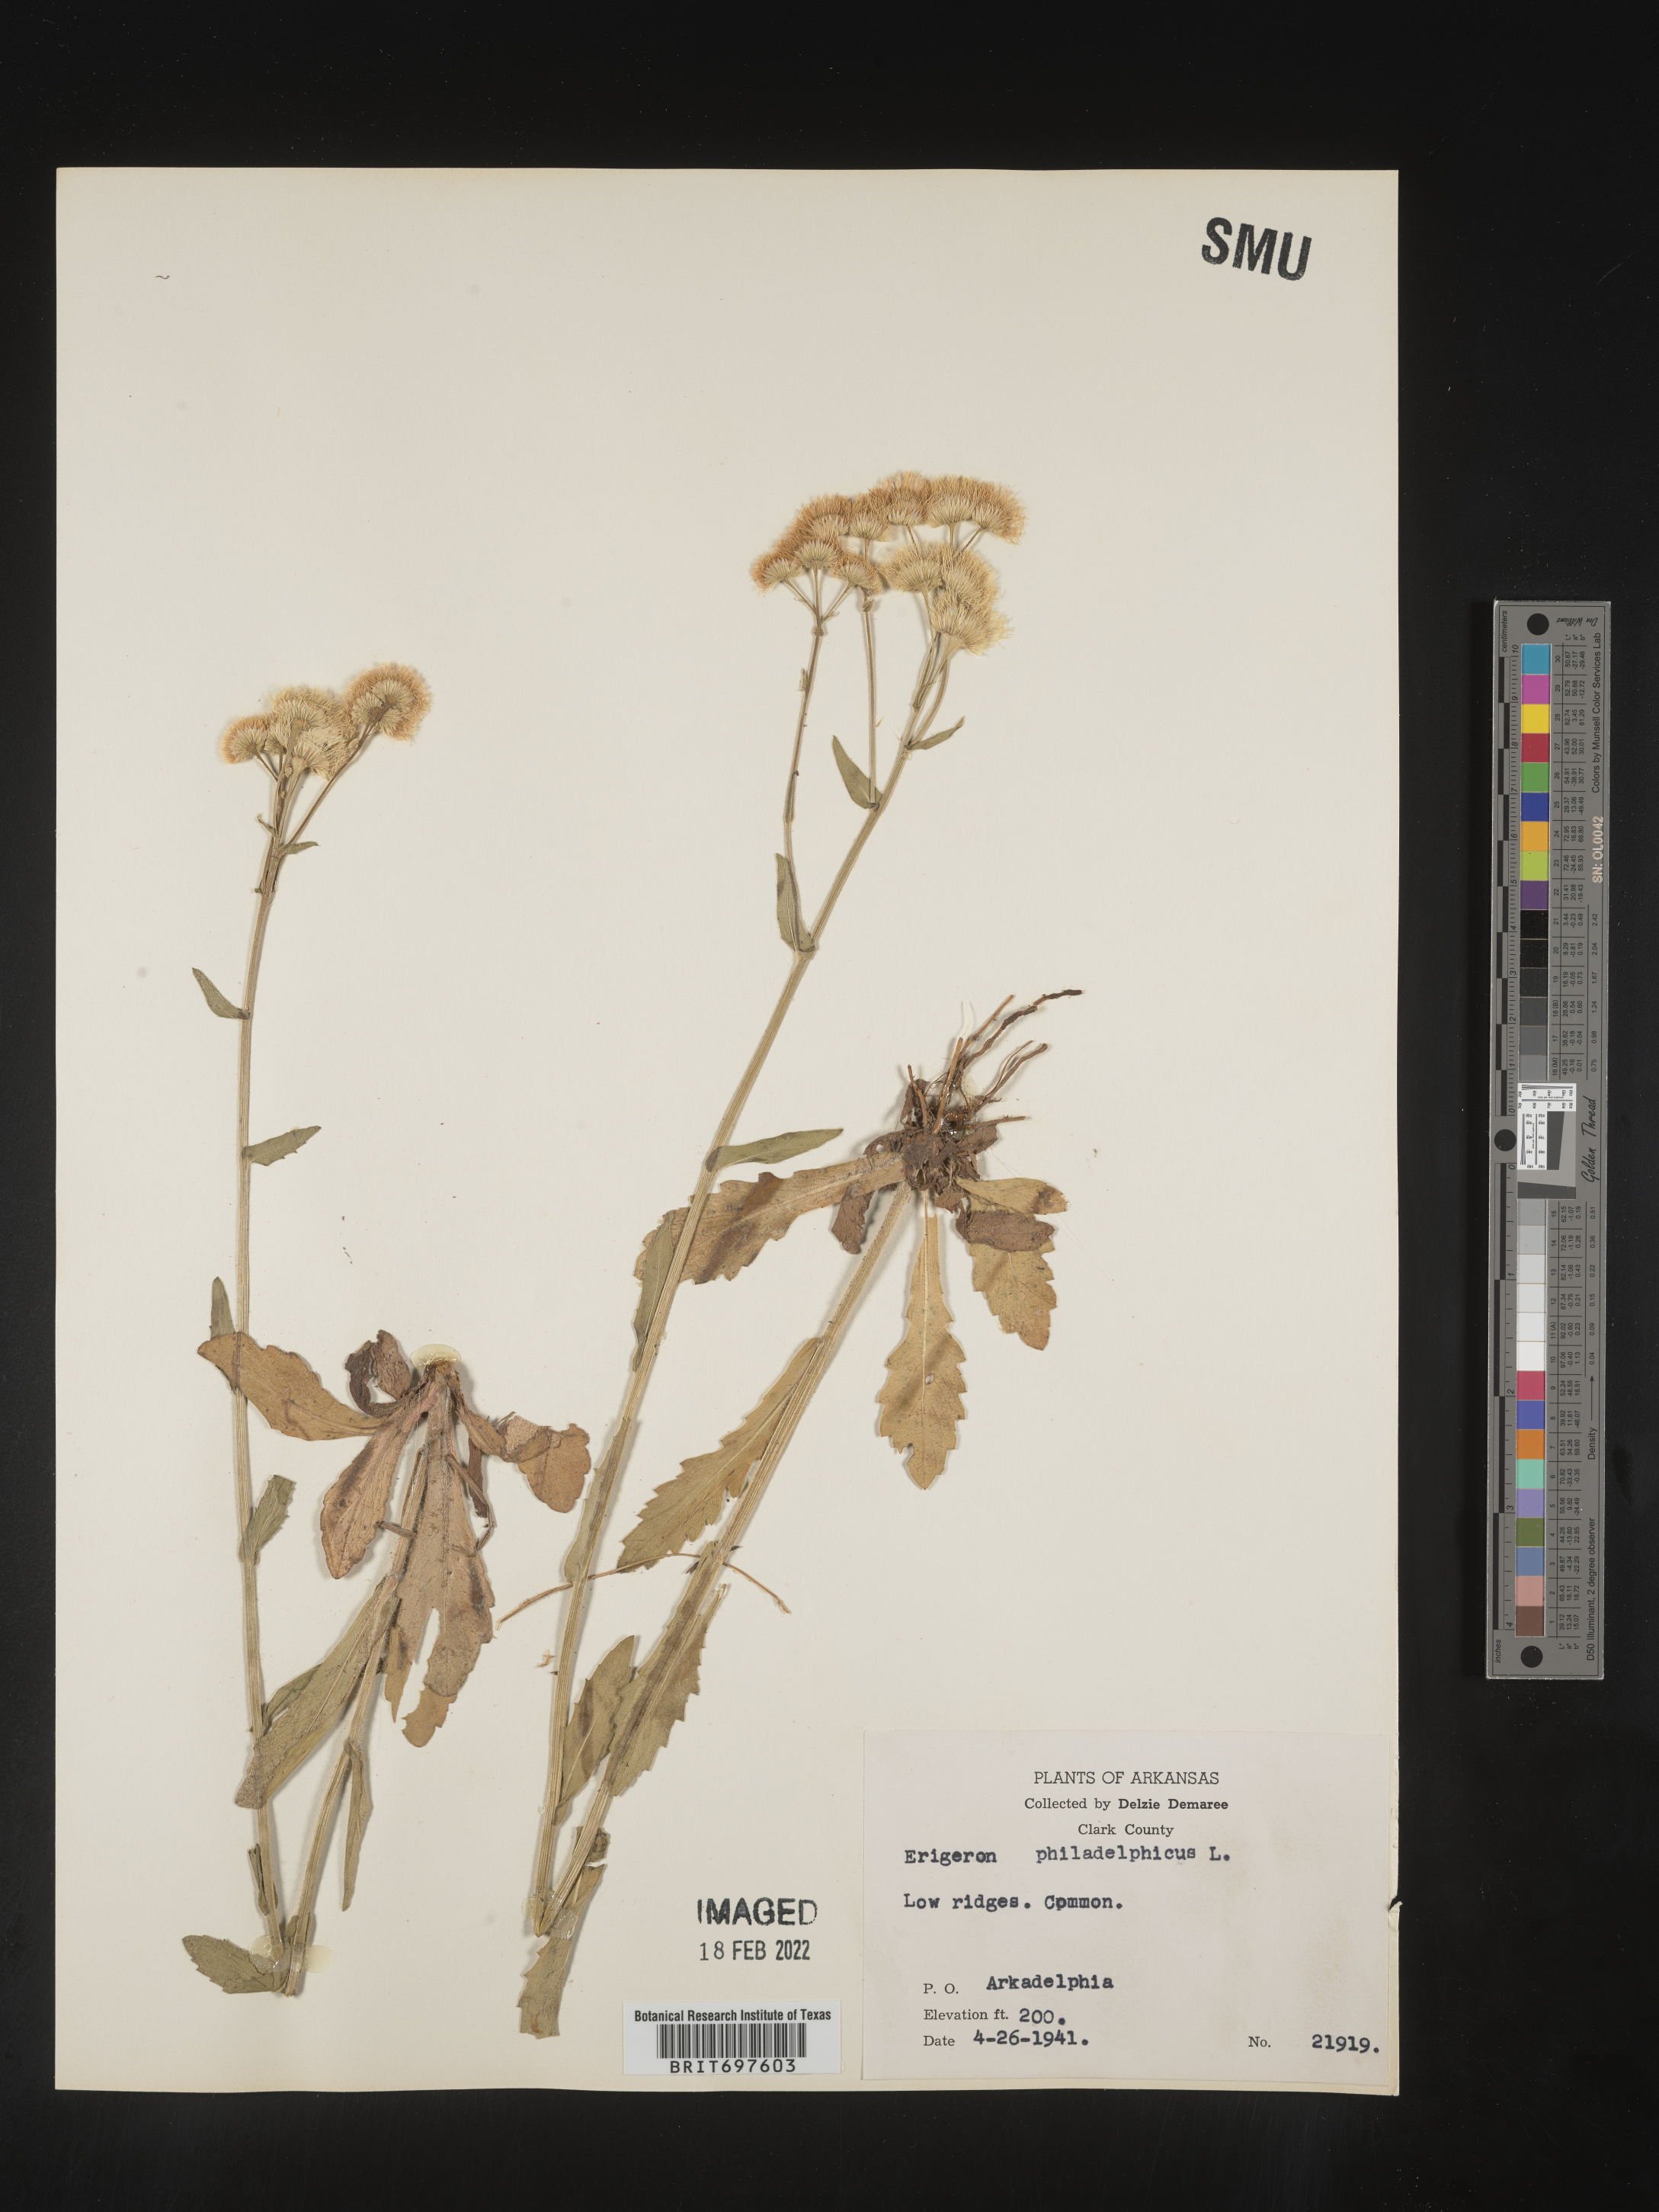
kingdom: Plantae
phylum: Tracheophyta
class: Magnoliopsida
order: Asterales
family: Asteraceae
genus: Erigeron
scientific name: Erigeron philadelphicus
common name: Robin's-plantain
